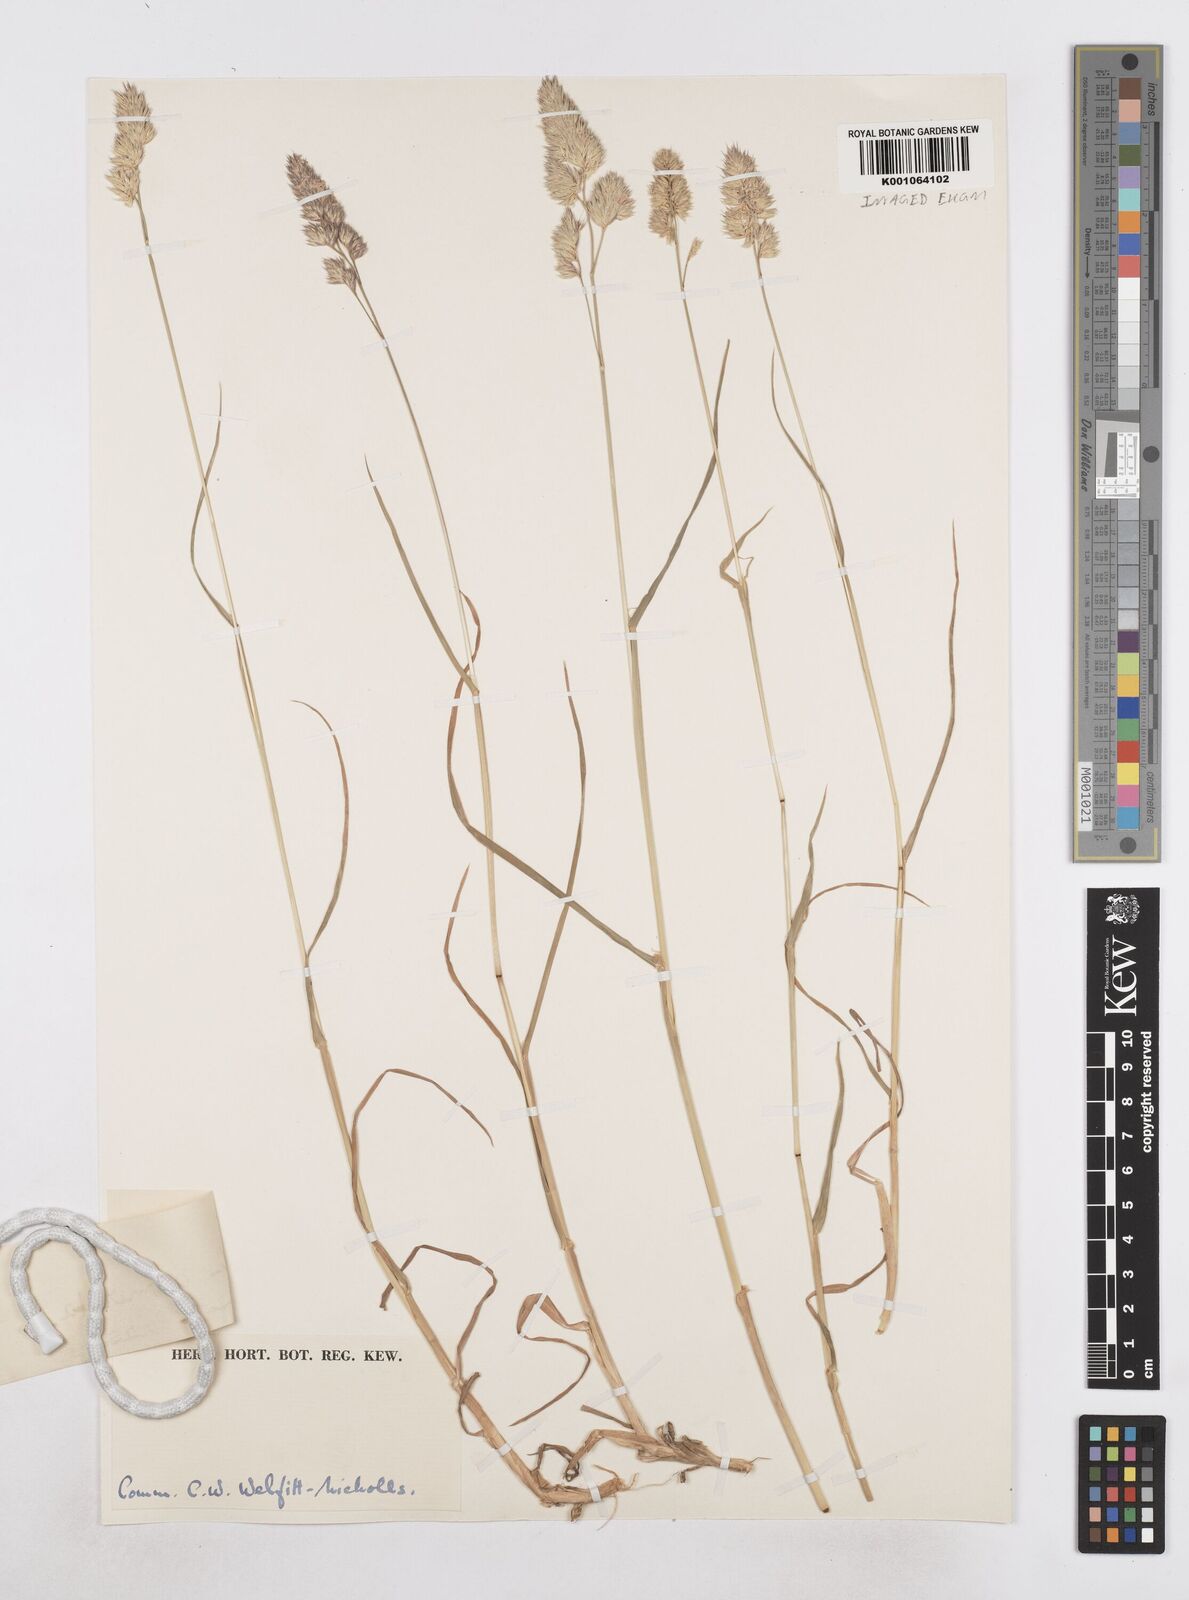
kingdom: Plantae
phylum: Tracheophyta
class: Liliopsida
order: Poales
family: Poaceae
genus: Dactylis
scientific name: Dactylis glomerata
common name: Orchardgrass
